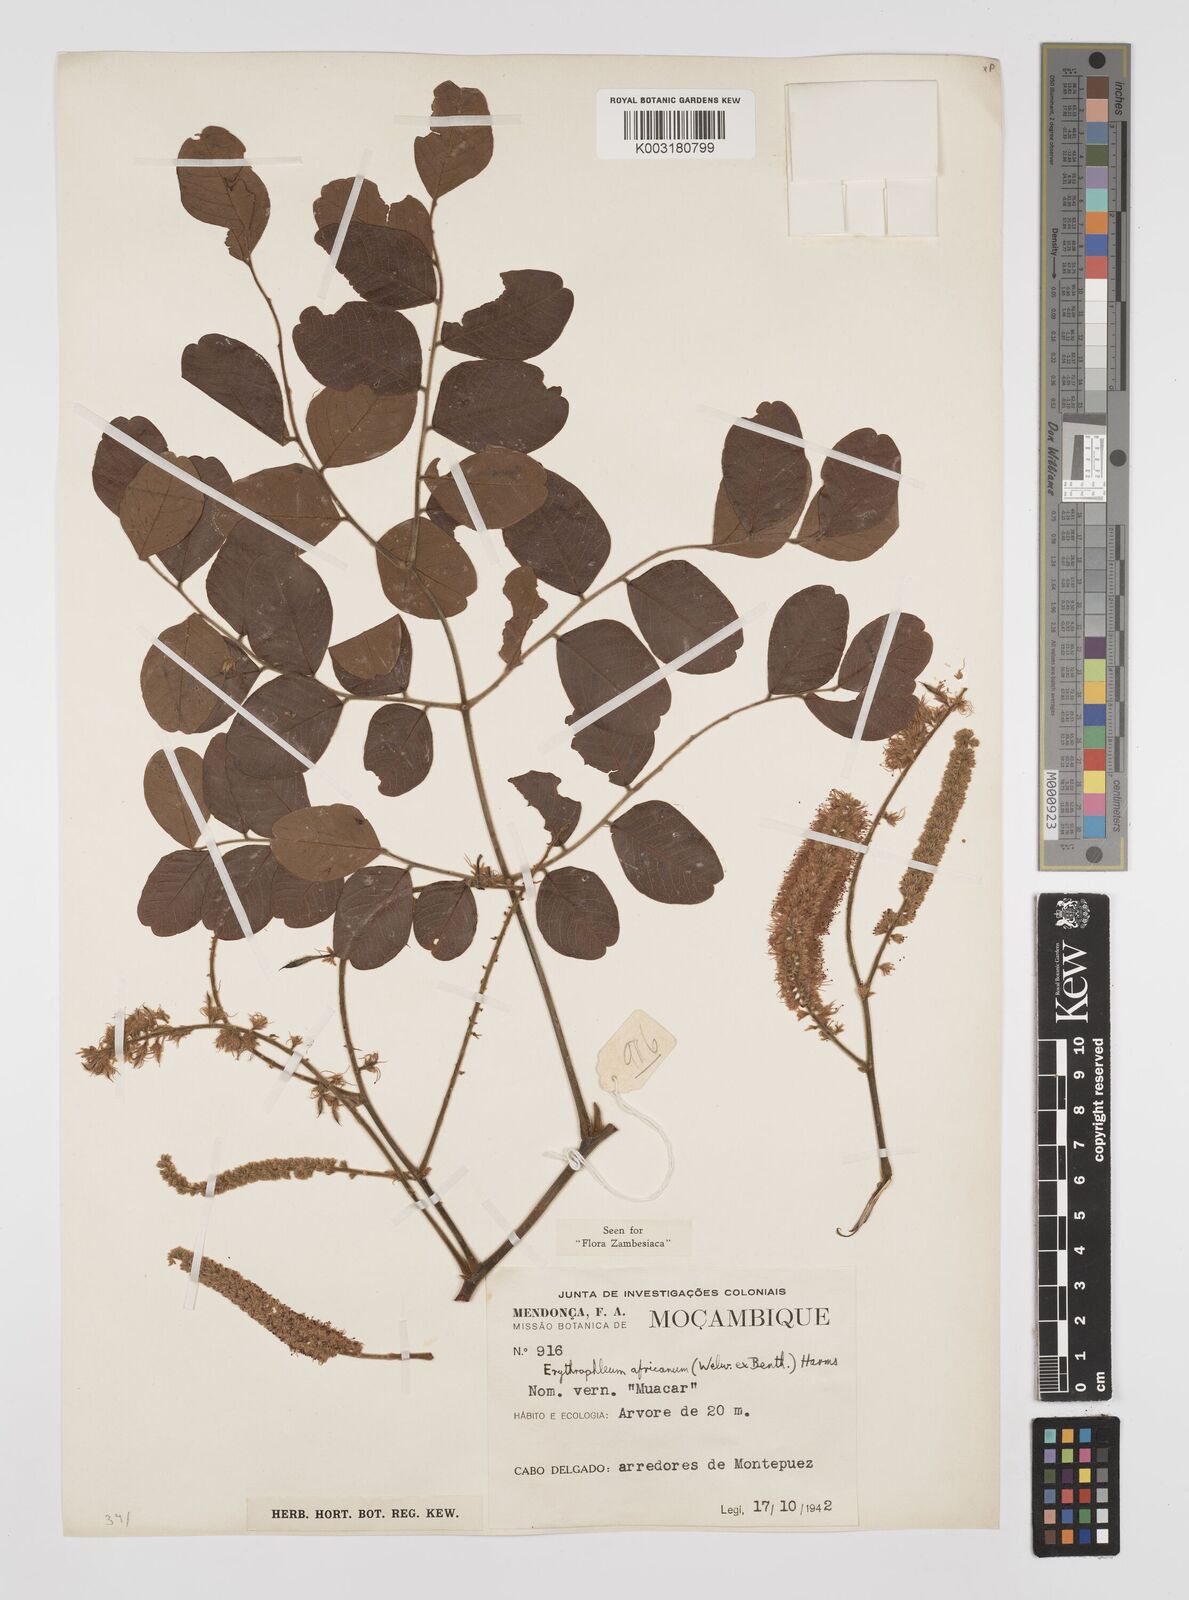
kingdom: Plantae
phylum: Tracheophyta
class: Magnoliopsida
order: Fabales
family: Fabaceae
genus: Peltophorum
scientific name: Peltophorum africanum
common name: African black wattle
